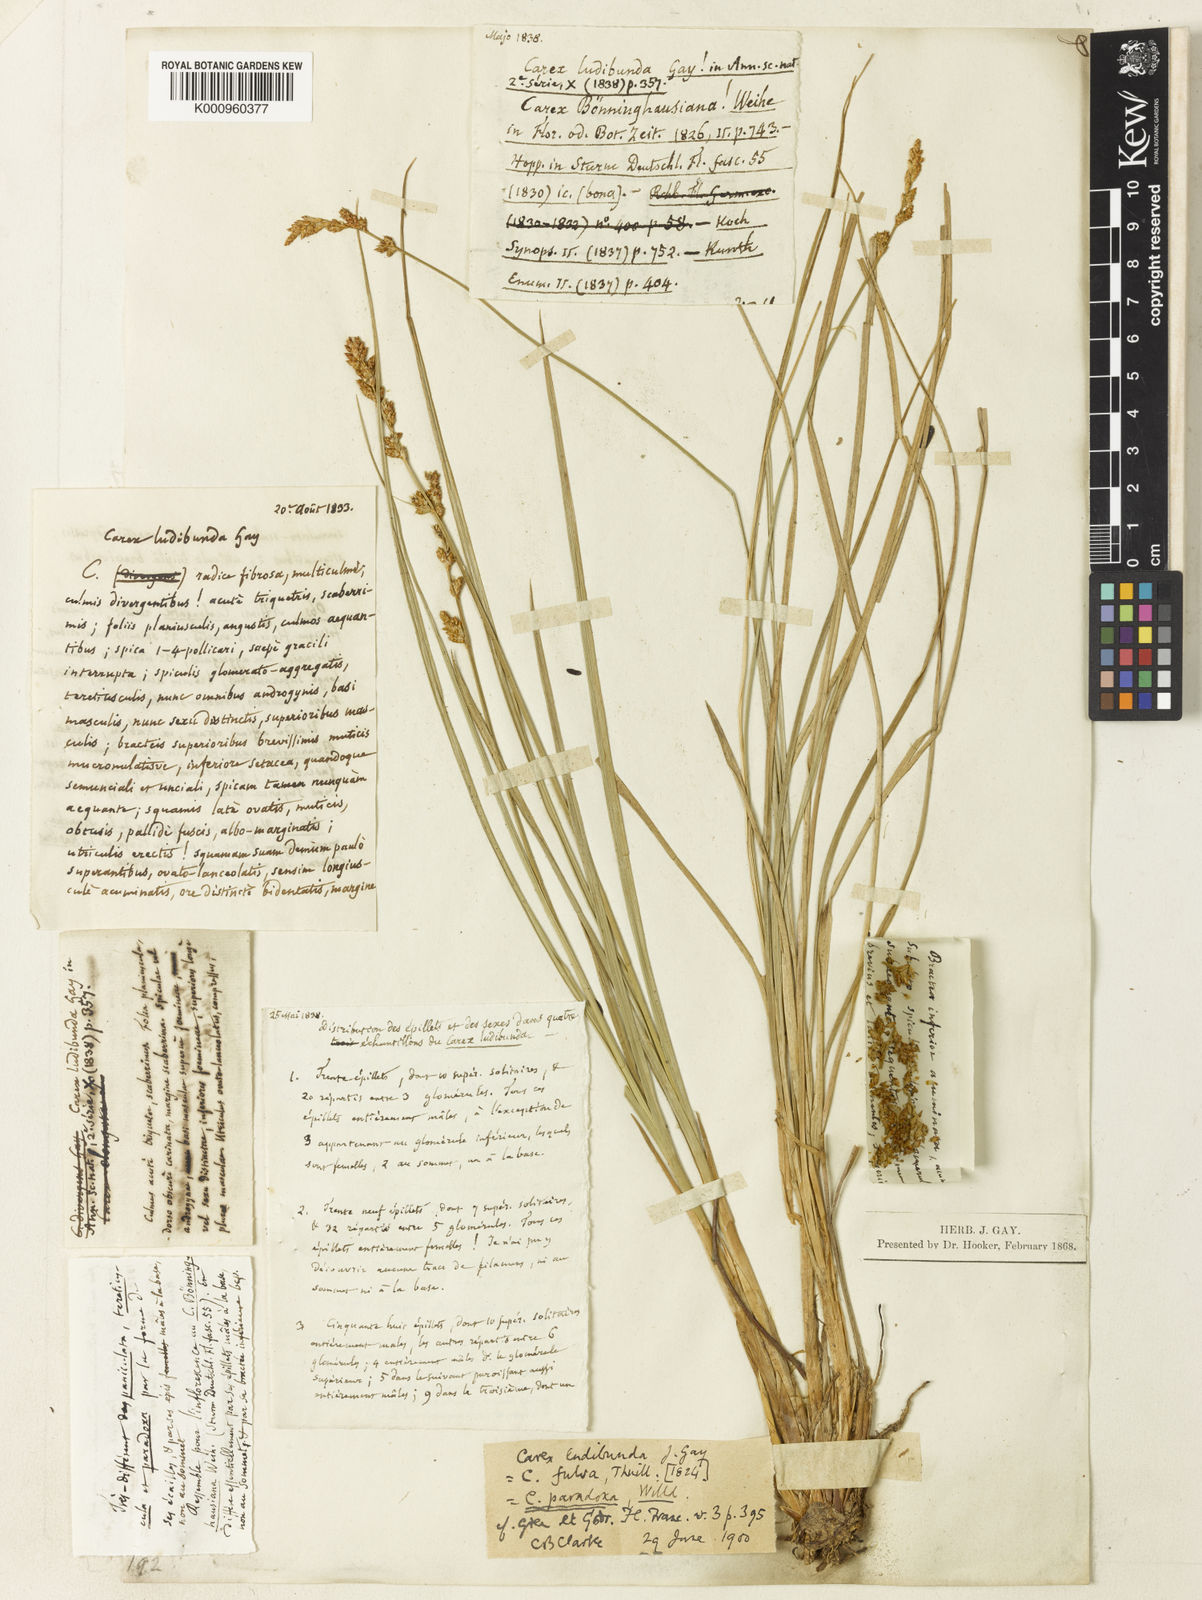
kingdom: Plantae
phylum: Tracheophyta
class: Liliopsida
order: Poales
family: Cyperaceae
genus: Carex
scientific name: Carex paniculata
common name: Greater tussock-sedge
